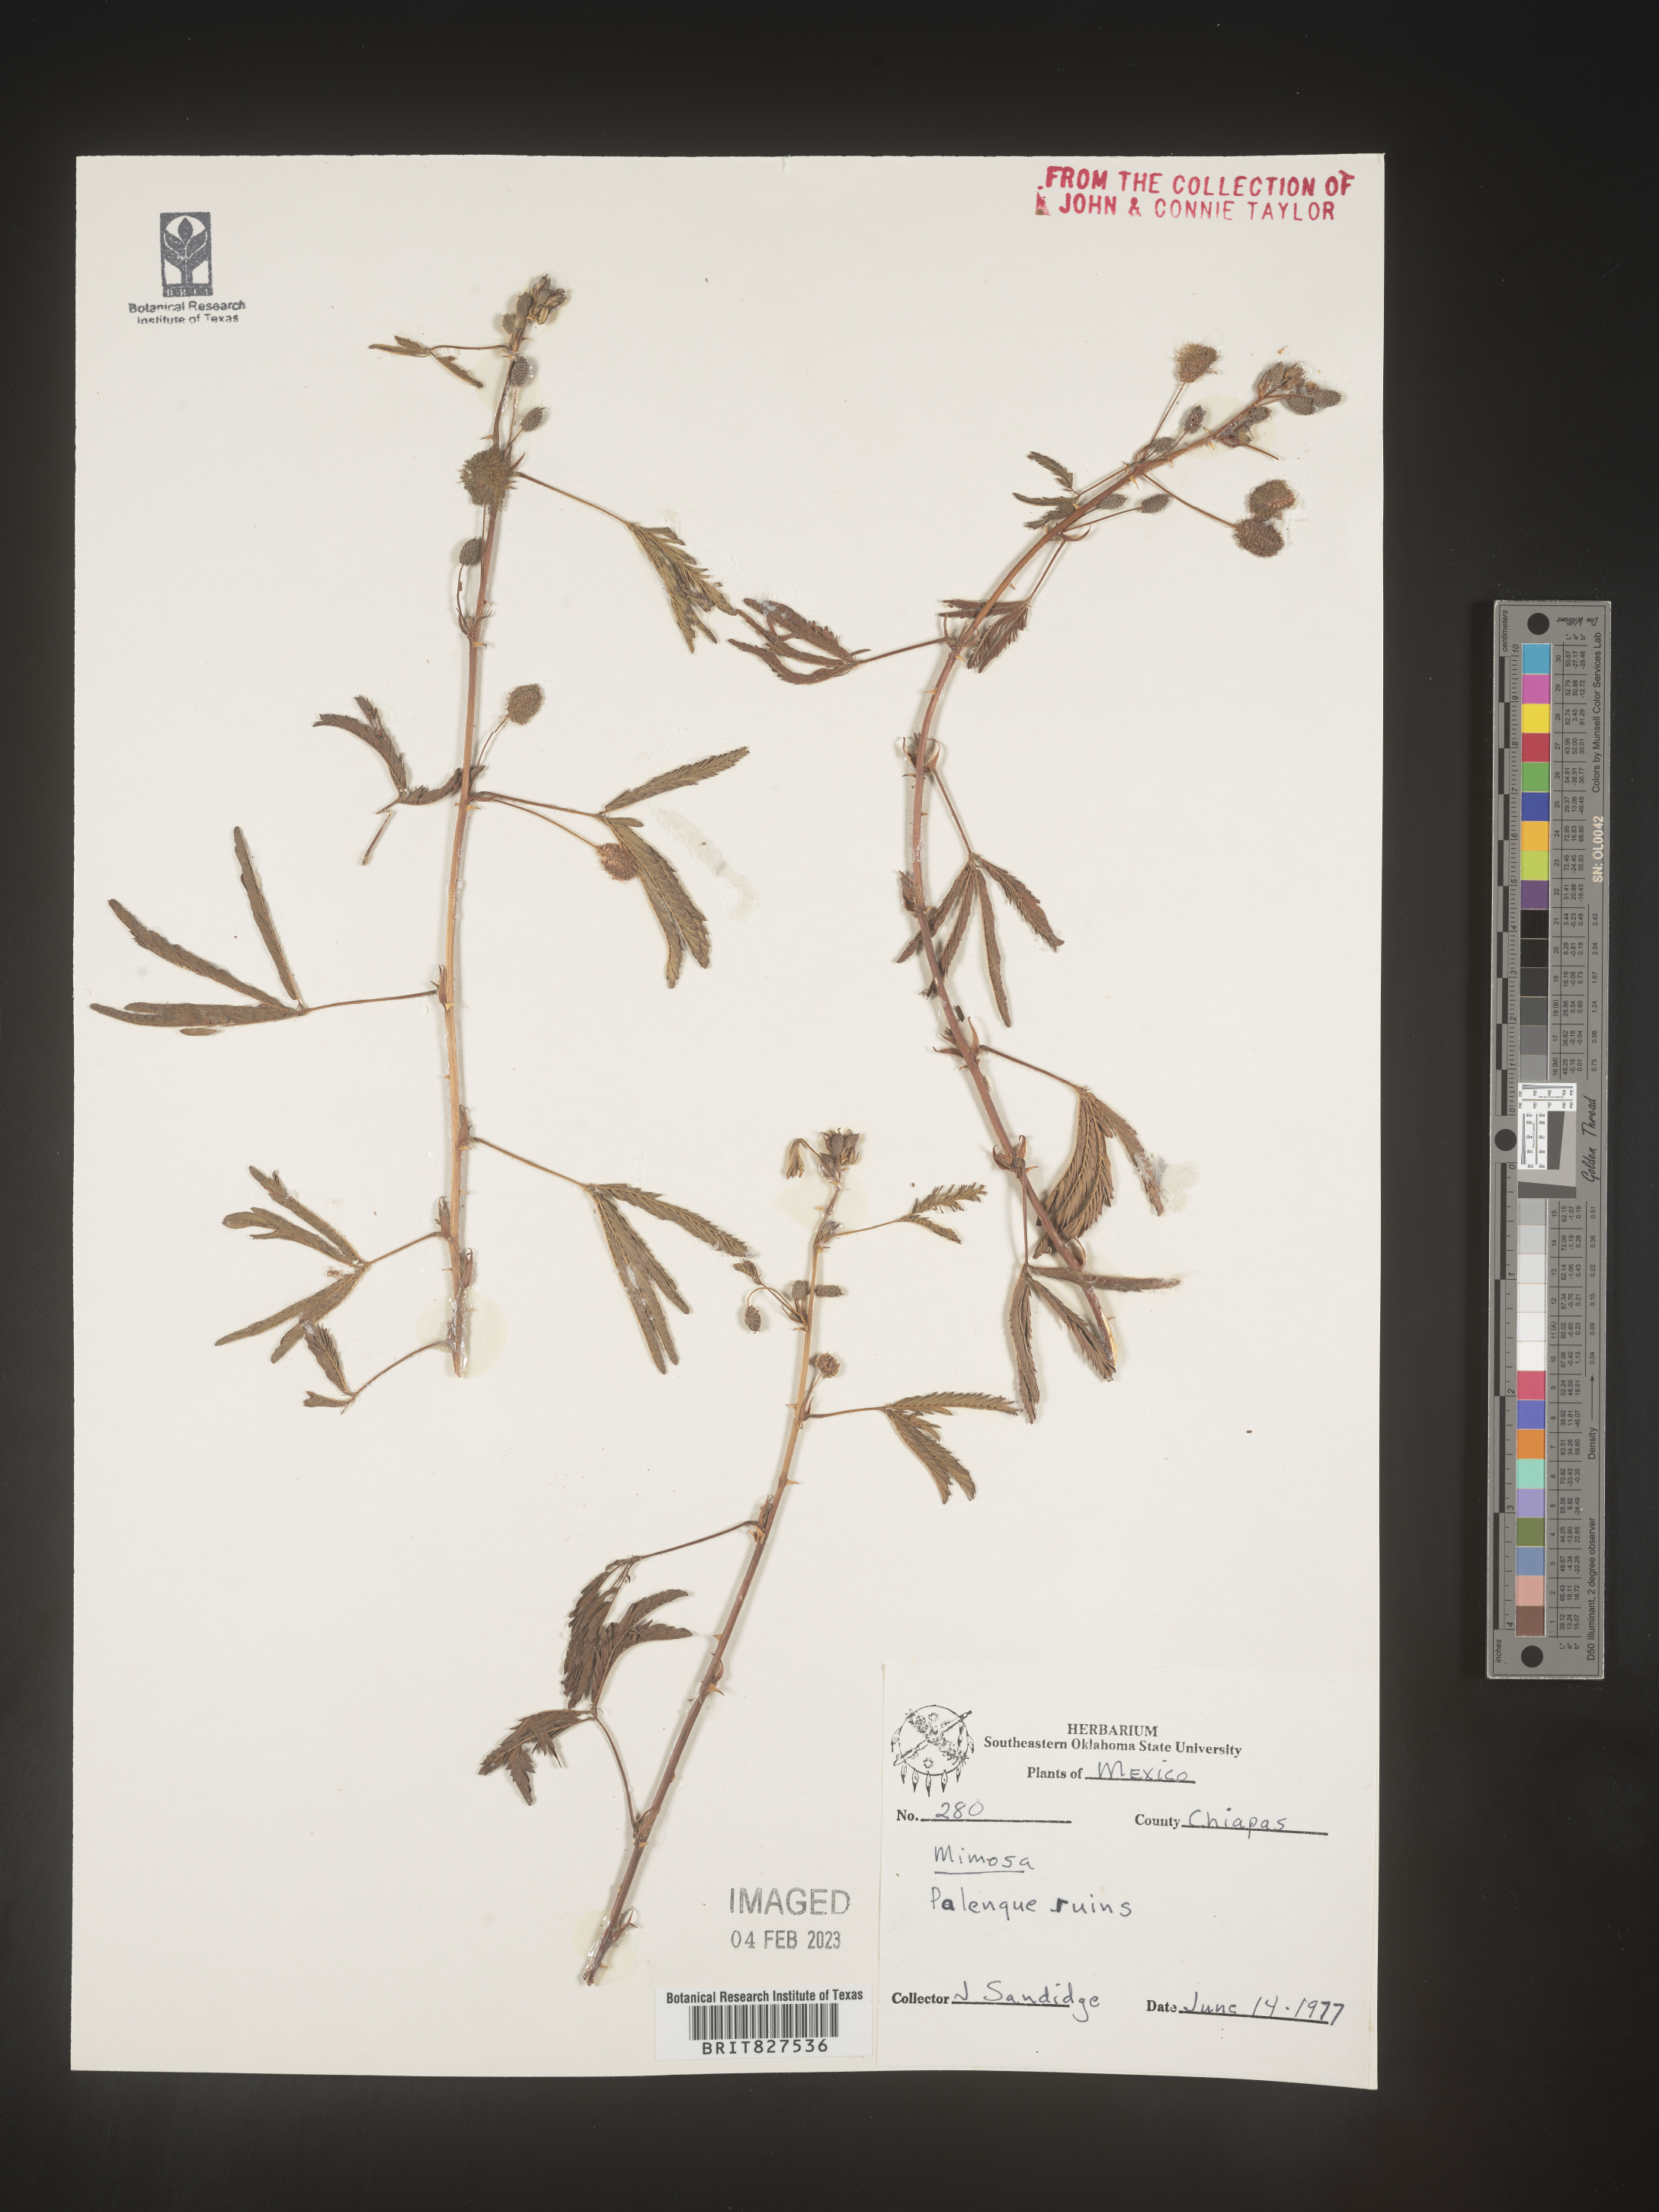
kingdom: Plantae
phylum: Tracheophyta
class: Magnoliopsida
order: Fabales
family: Fabaceae
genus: Mimosa
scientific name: Mimosa
